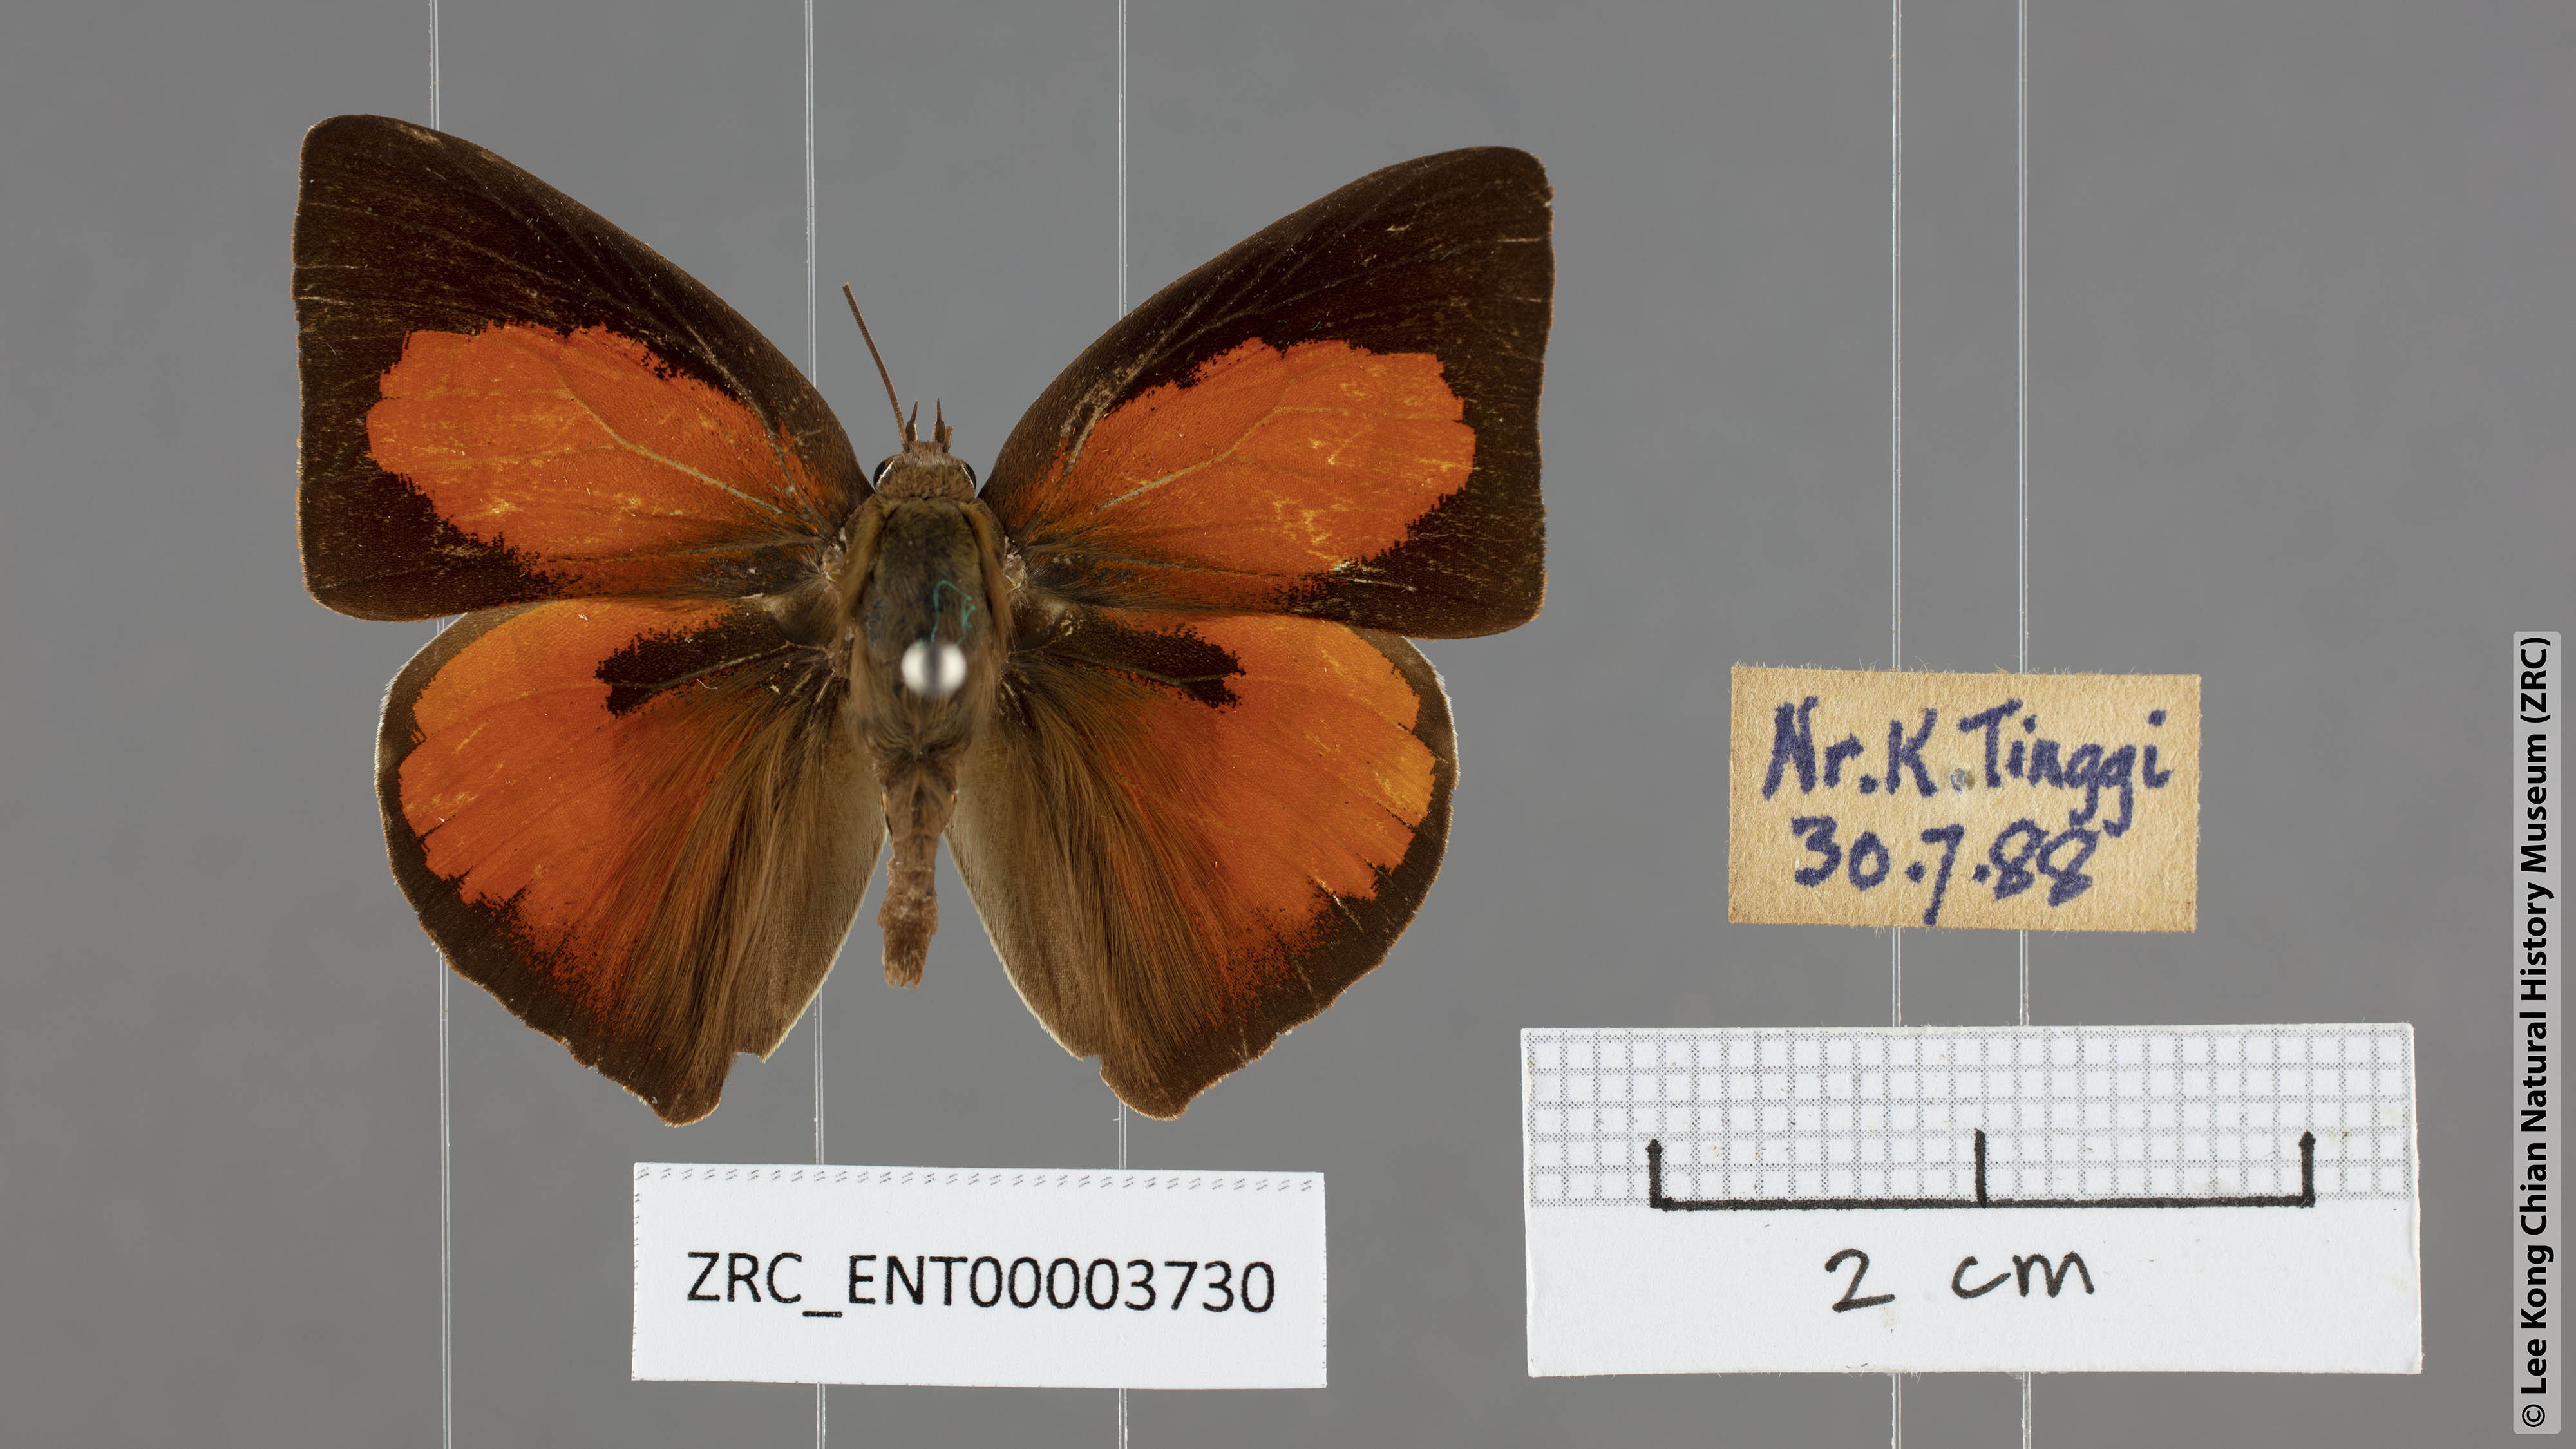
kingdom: Animalia
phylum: Arthropoda
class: Insecta
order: Lepidoptera
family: Lycaenidae
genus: Curetis
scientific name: Curetis bulis
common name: Bright sunbeam
